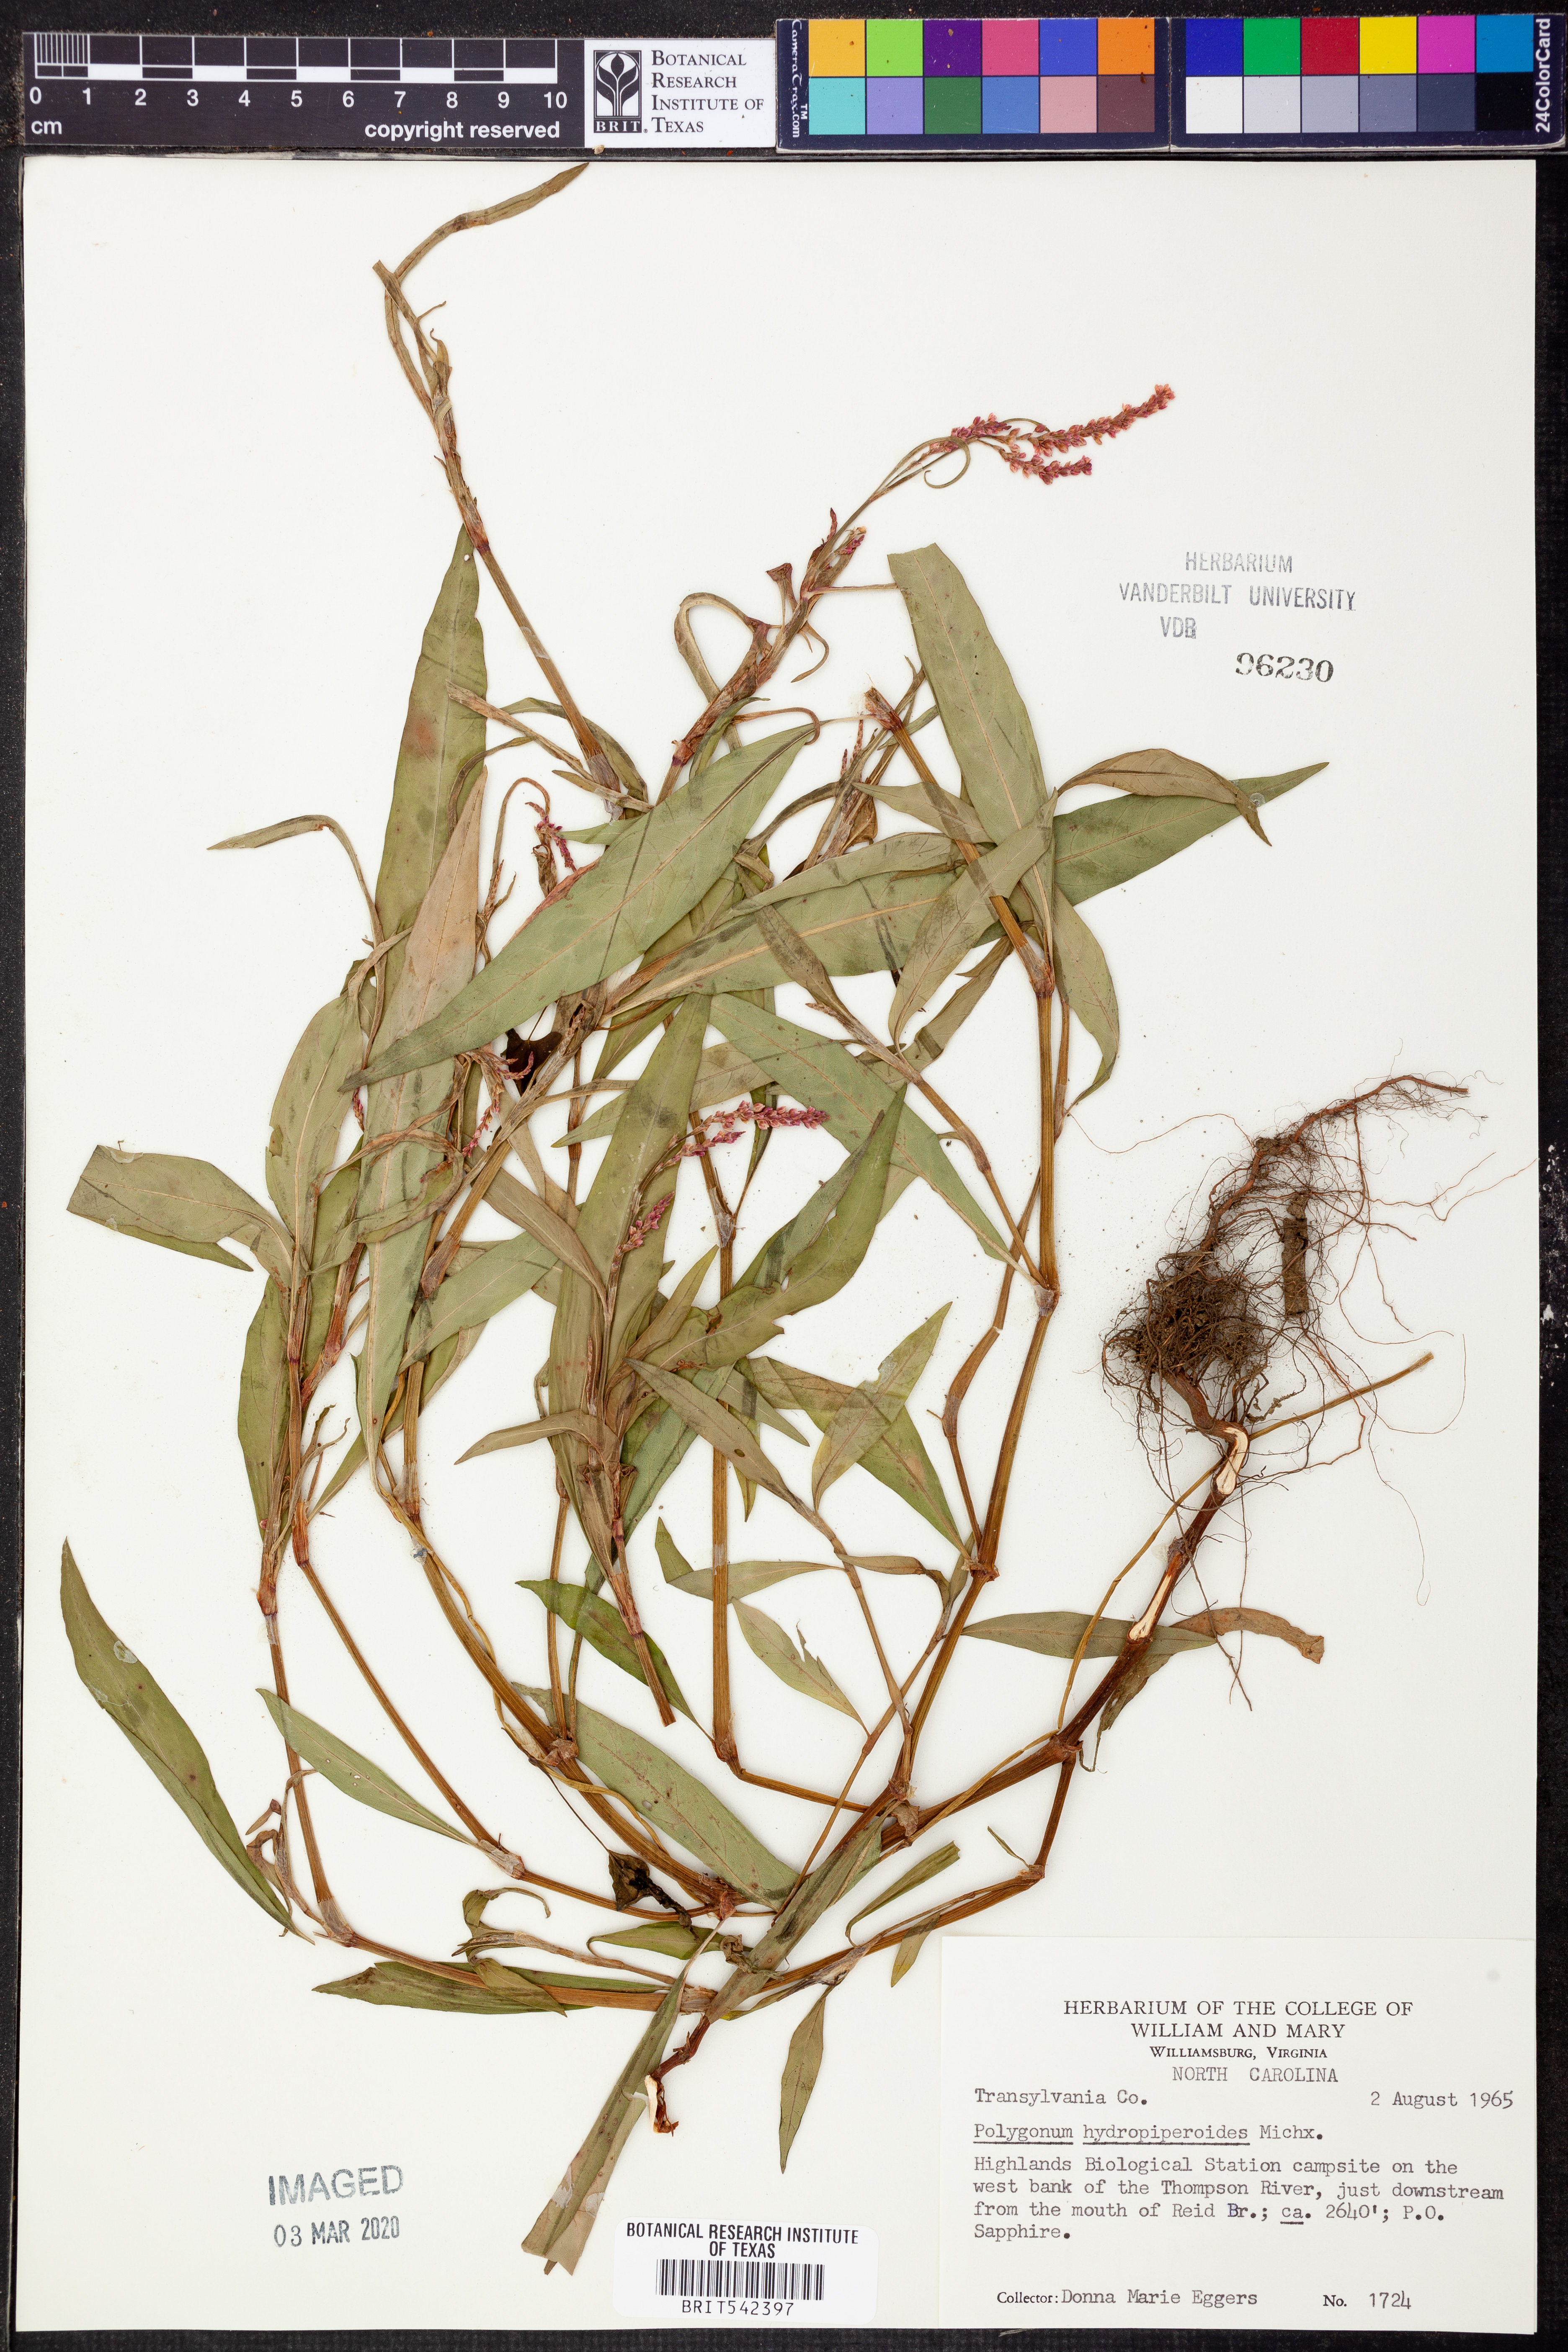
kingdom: Plantae
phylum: Tracheophyta
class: Magnoliopsida
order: Caryophyllales
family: Polygonaceae
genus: Persicaria
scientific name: Persicaria hydropiperoides
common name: Swamp smartweed
